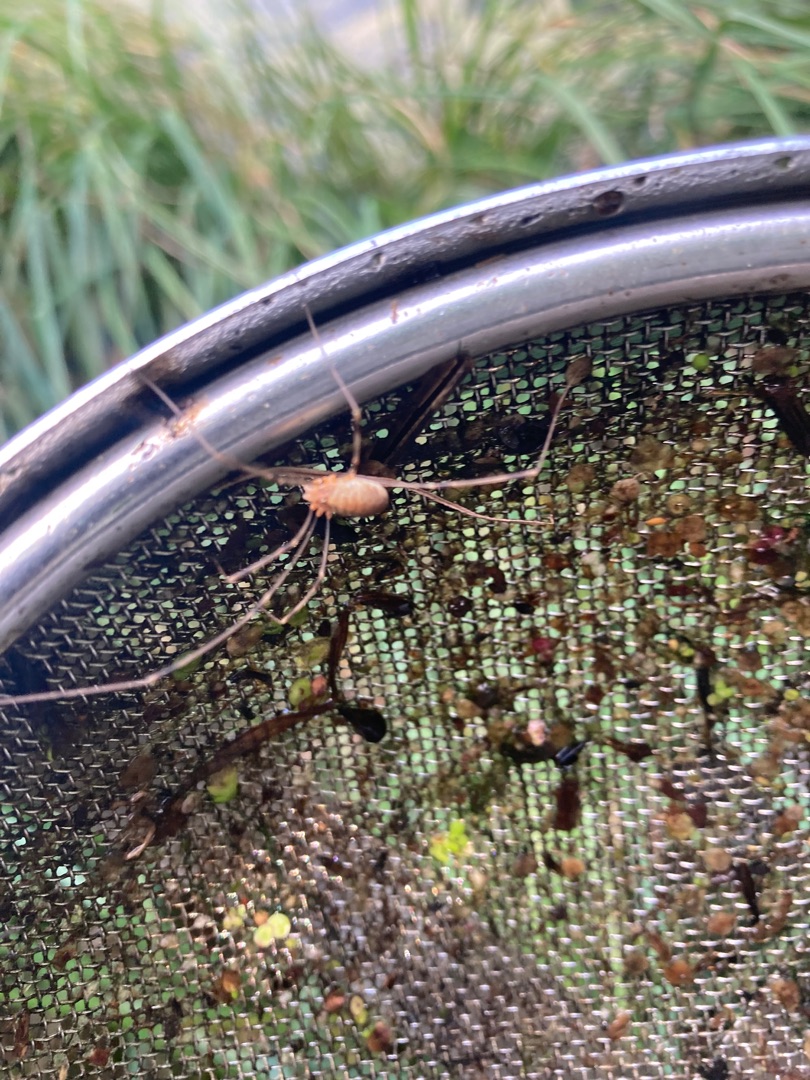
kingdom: Animalia
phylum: Arthropoda
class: Arachnida
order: Opiliones
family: Phalangiidae
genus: Opilio
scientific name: Opilio canestrinii
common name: Orange vægmejer
